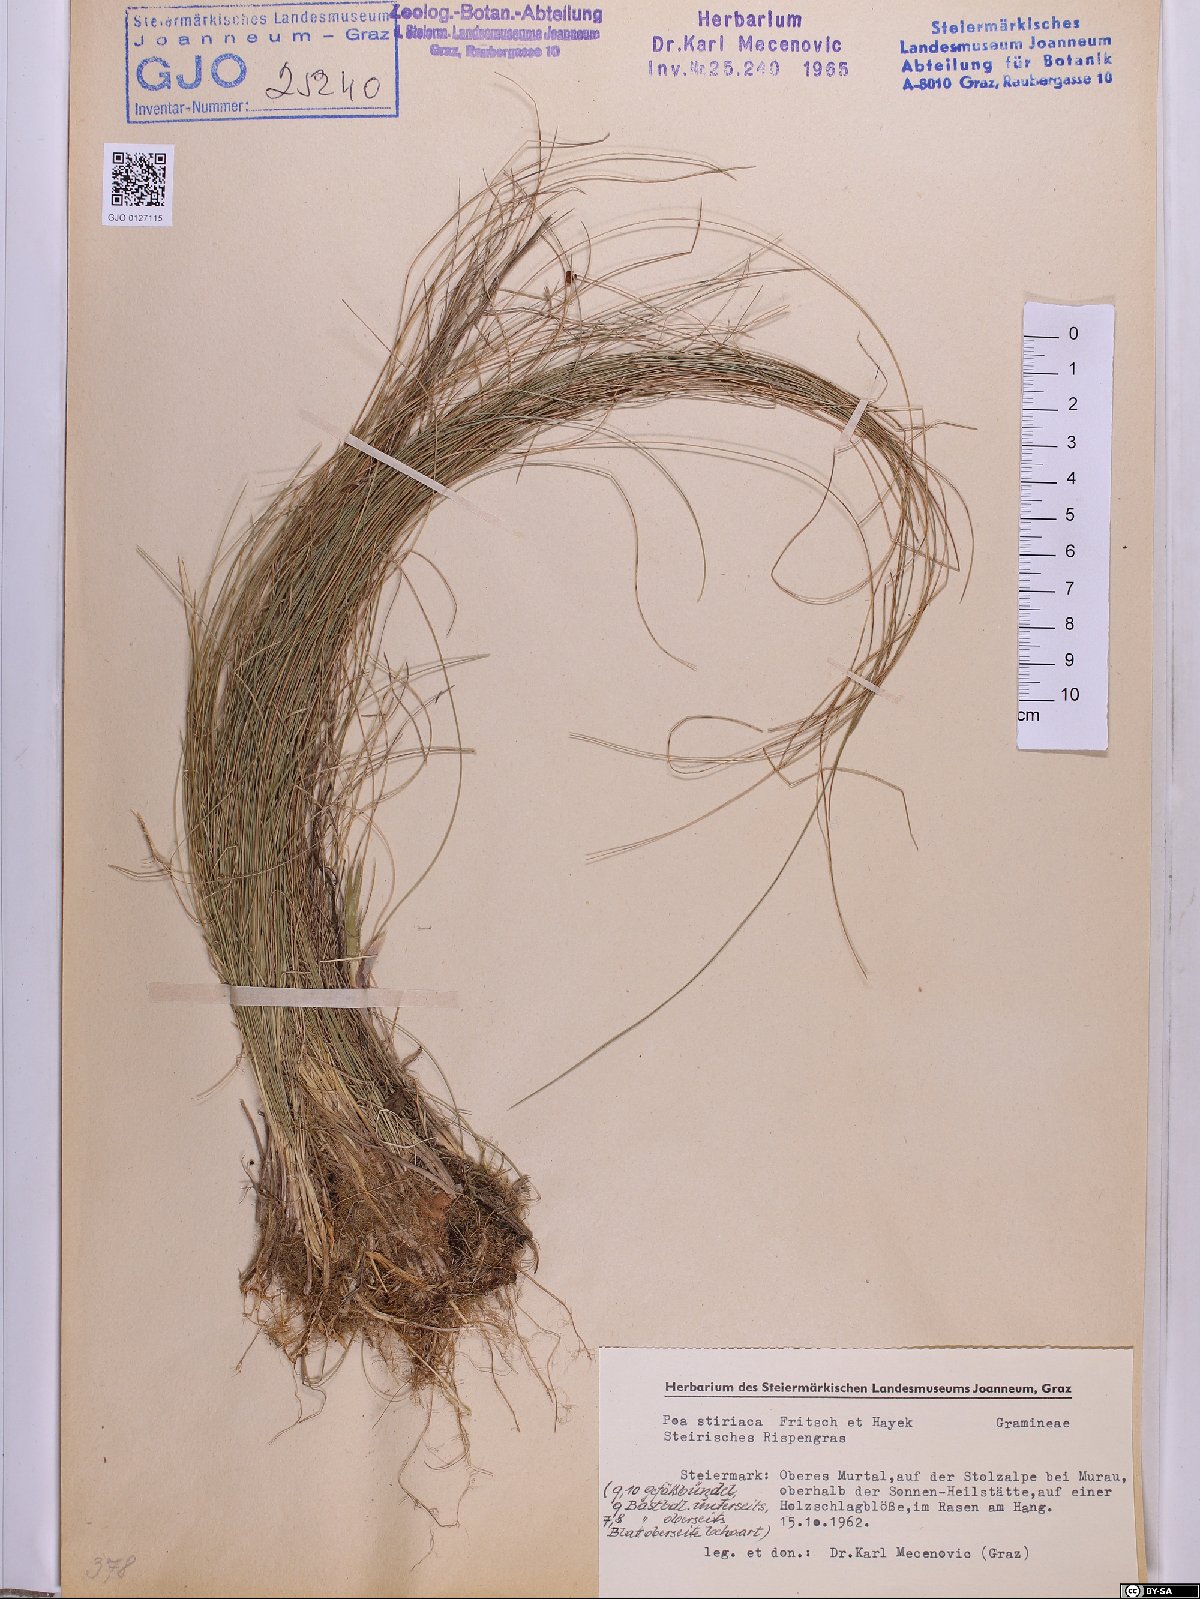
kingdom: Plantae
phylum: Tracheophyta
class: Liliopsida
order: Poales
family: Poaceae
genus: Poa
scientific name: Poa stiriaca
